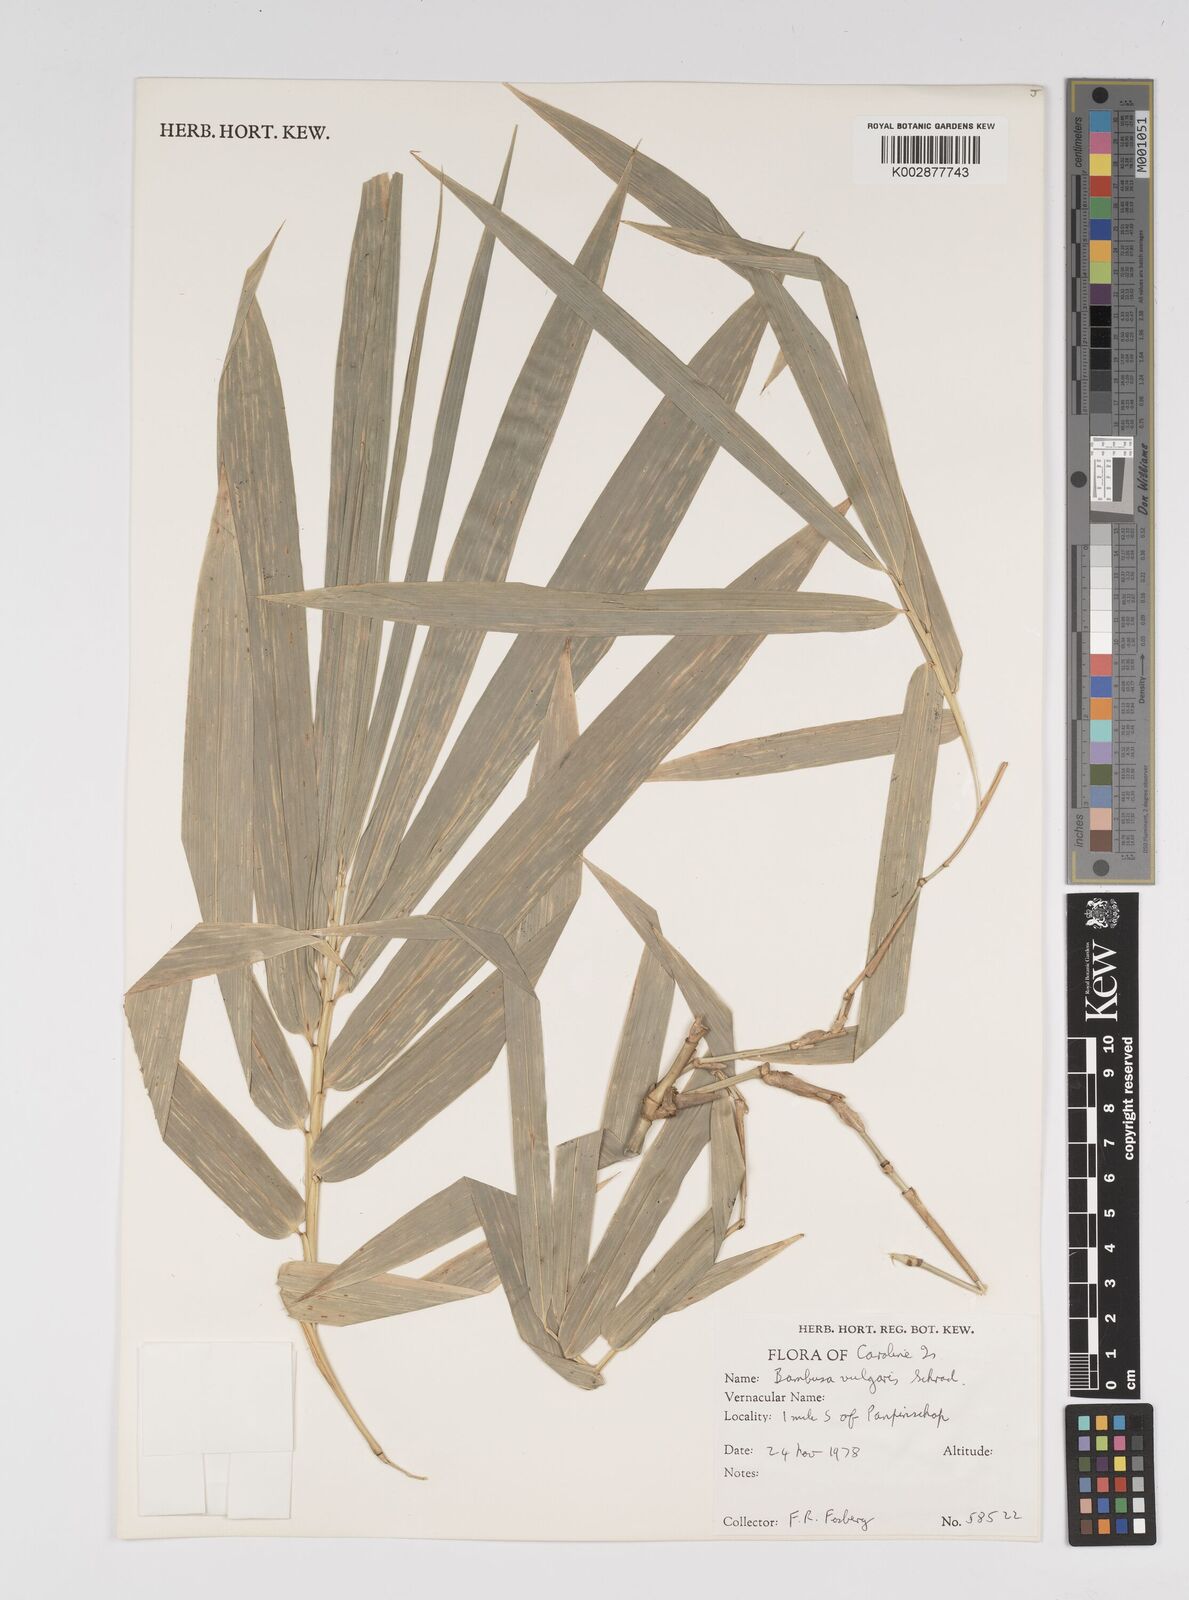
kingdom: Plantae
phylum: Tracheophyta
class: Liliopsida
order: Poales
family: Poaceae
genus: Bambusa
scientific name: Bambusa vulgaris
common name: Common bamboo
